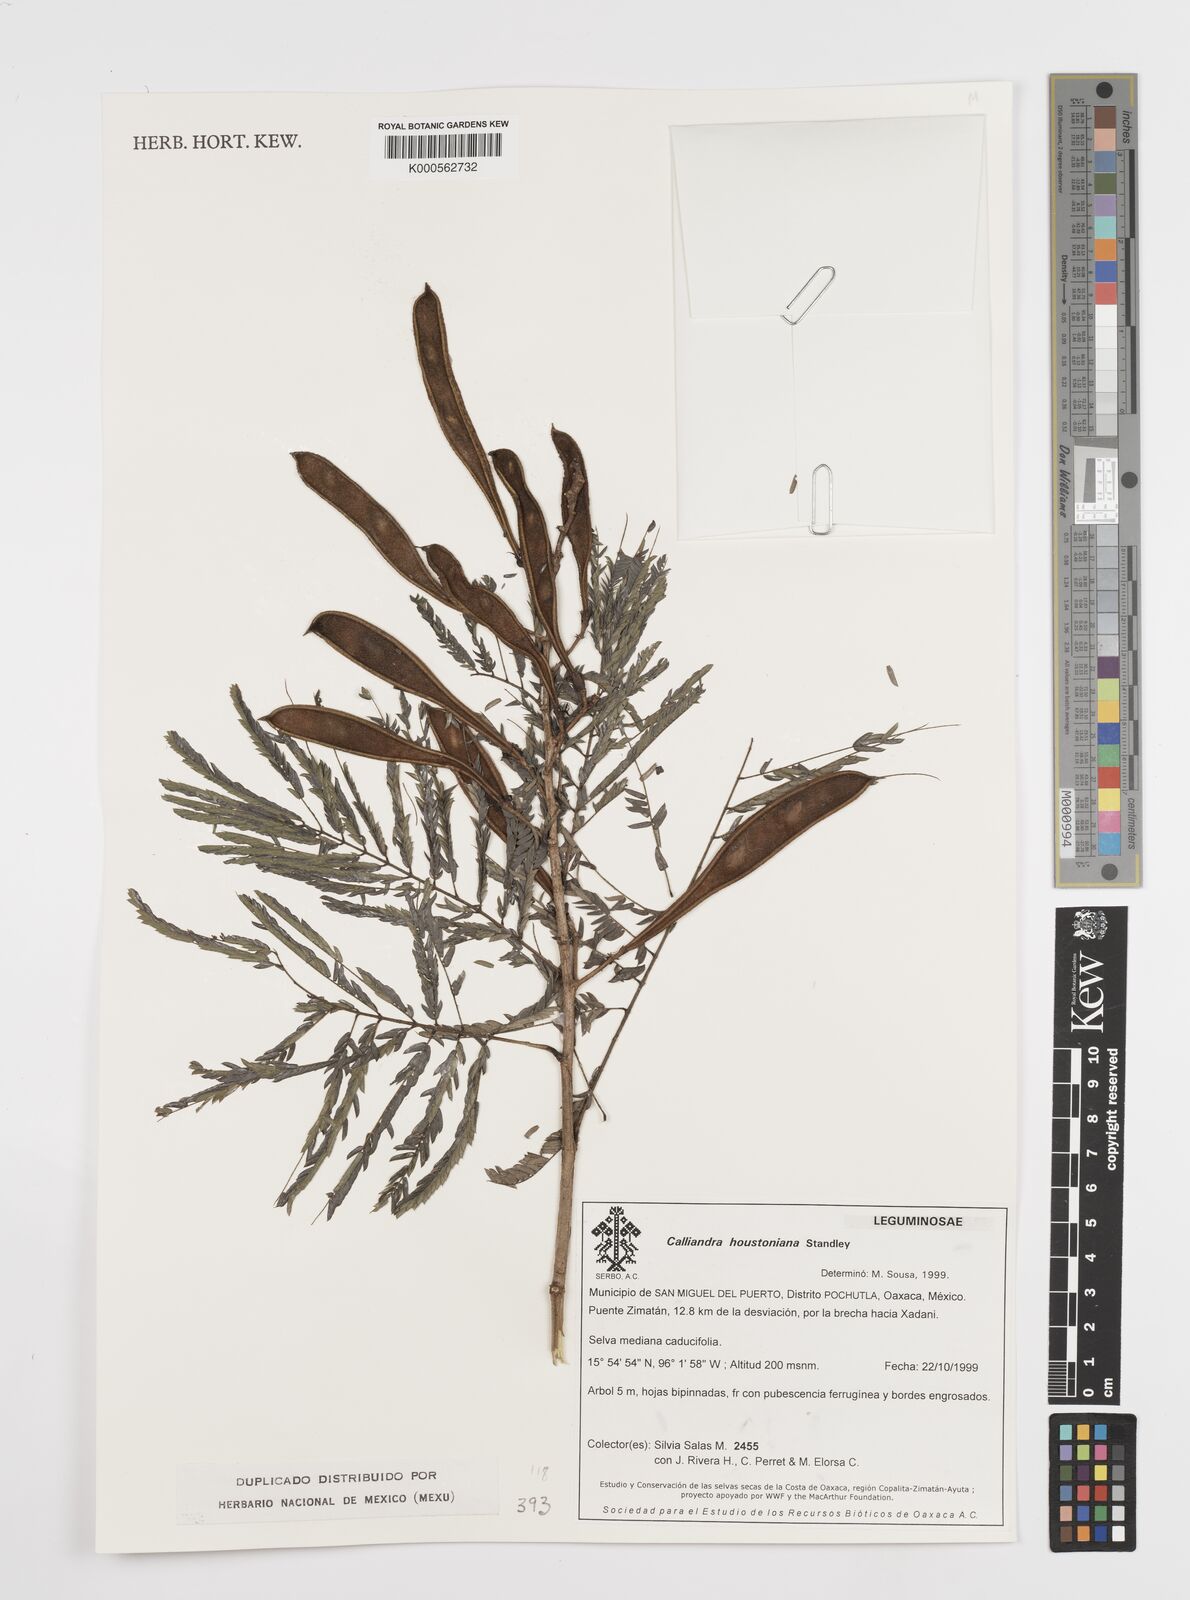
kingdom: Plantae
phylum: Tracheophyta
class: Magnoliopsida
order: Fabales
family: Fabaceae
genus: Calliandra
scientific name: Calliandra houstoniana
